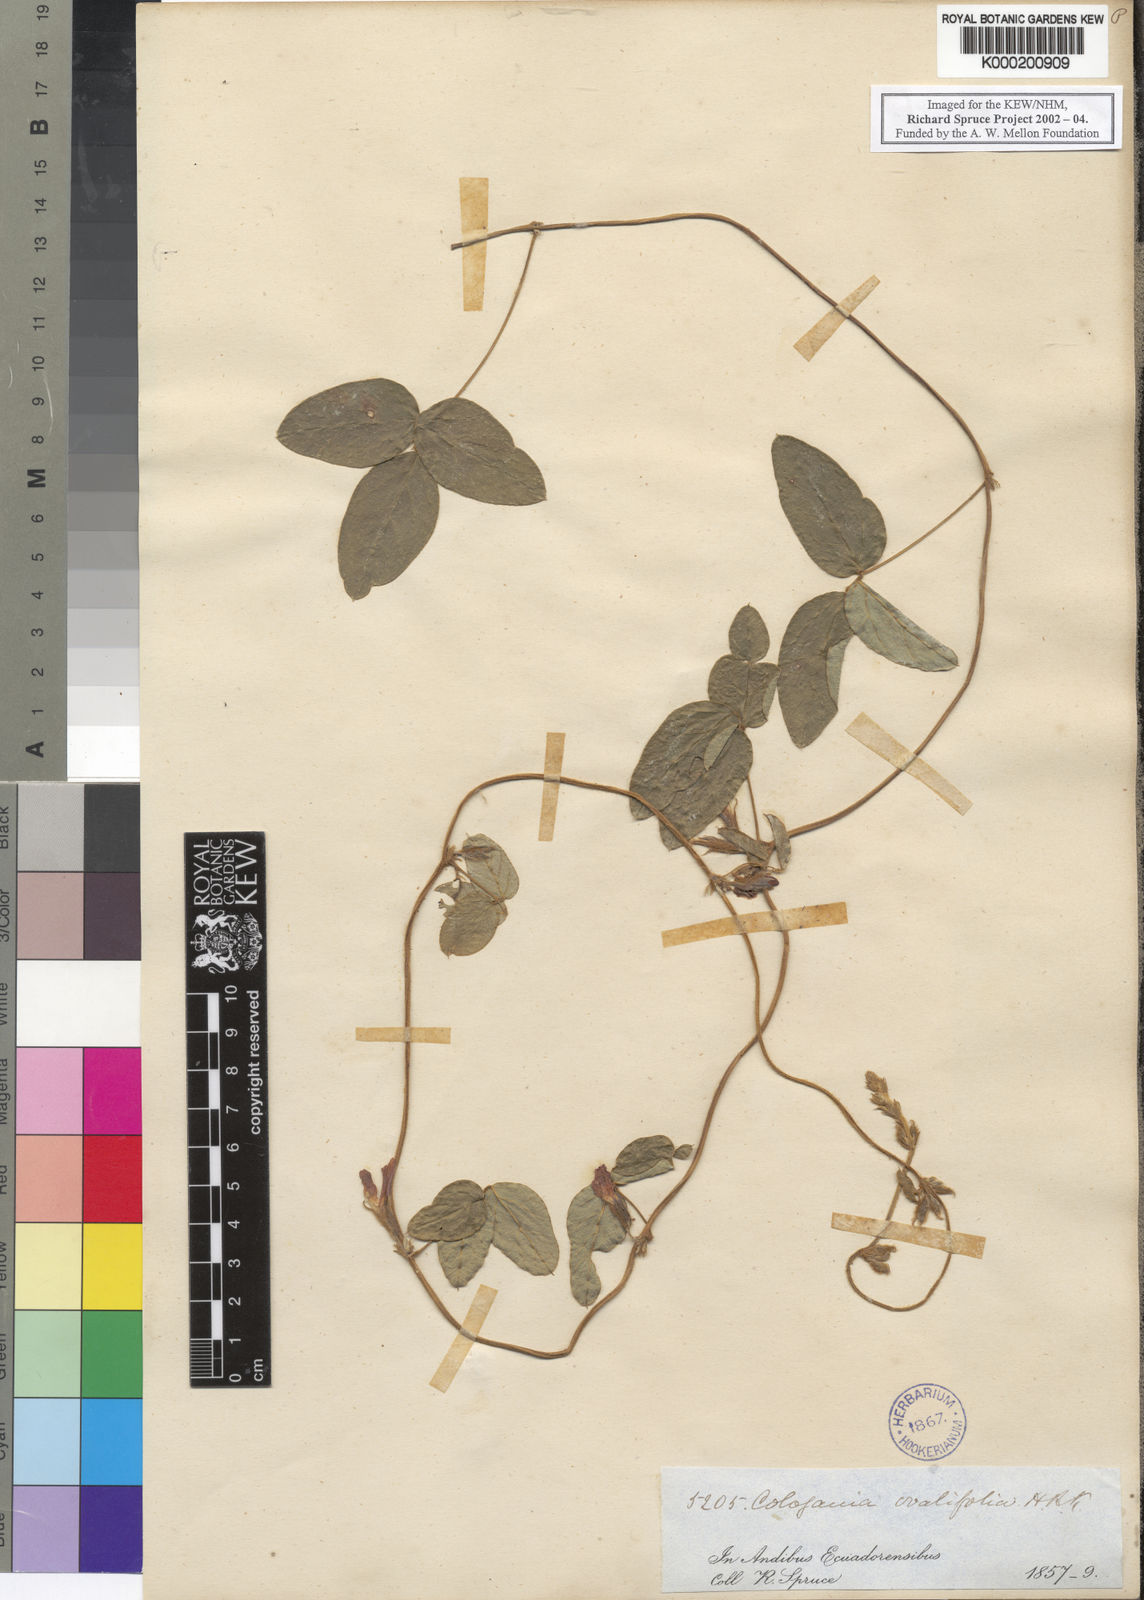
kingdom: Plantae
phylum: Tracheophyta
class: Magnoliopsida
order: Fabales
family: Fabaceae
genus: Cologania
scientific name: Cologania broussonetii
